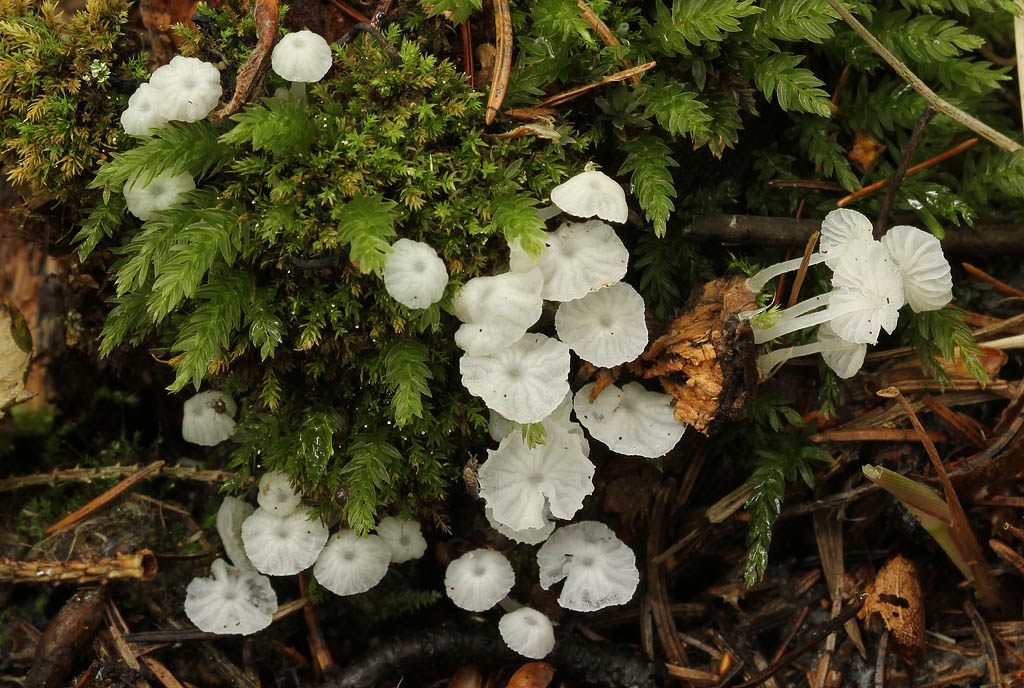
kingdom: Fungi
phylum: Basidiomycota
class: Agaricomycetes
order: Agaricales
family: Tricholomataceae
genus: Delicatula
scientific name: Delicatula integrella
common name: slørhuesvamp
